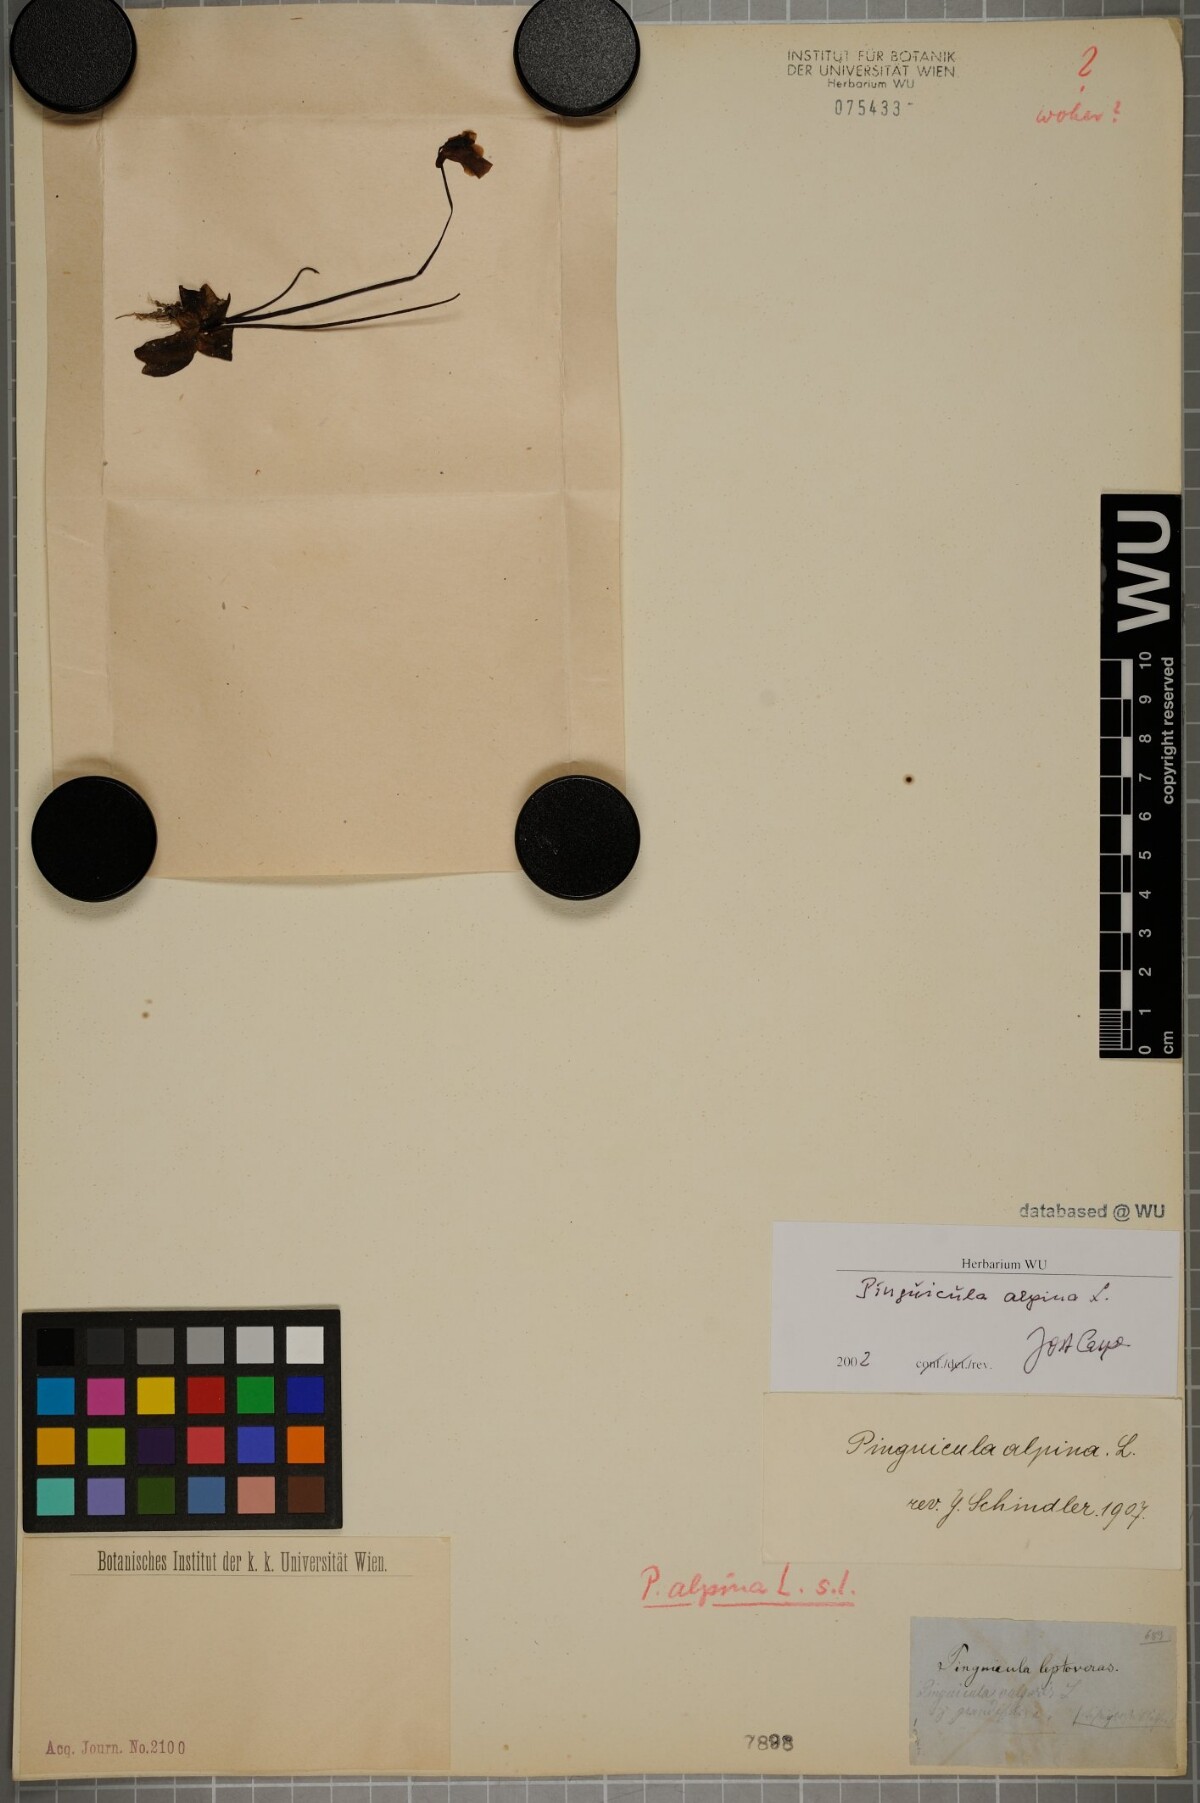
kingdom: Plantae
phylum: Tracheophyta
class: Magnoliopsida
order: Lamiales
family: Lentibulariaceae
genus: Pinguicula
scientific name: Pinguicula alpina
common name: Alpine butterwort
